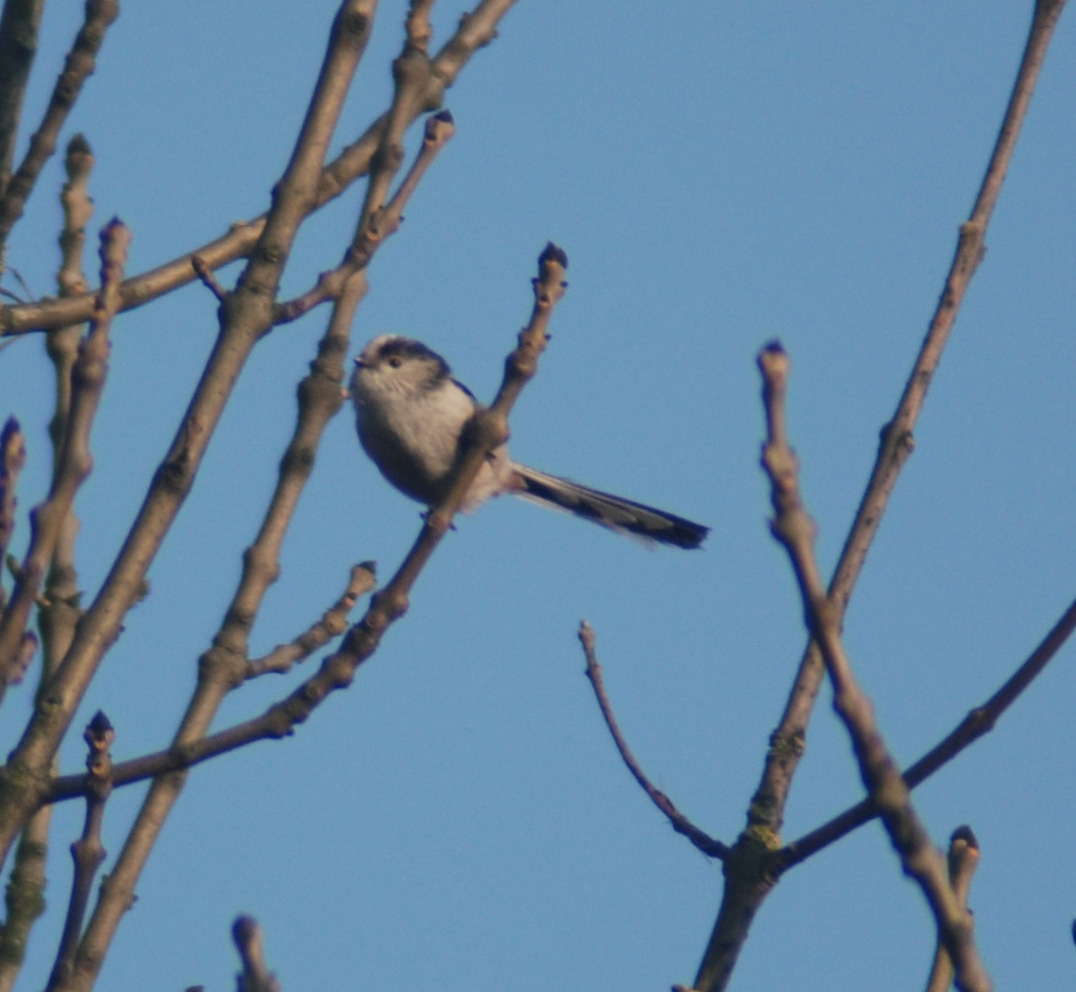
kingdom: Animalia
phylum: Chordata
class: Aves
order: Passeriformes
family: Aegithalidae
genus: Aegithalos
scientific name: Aegithalos caudatus
